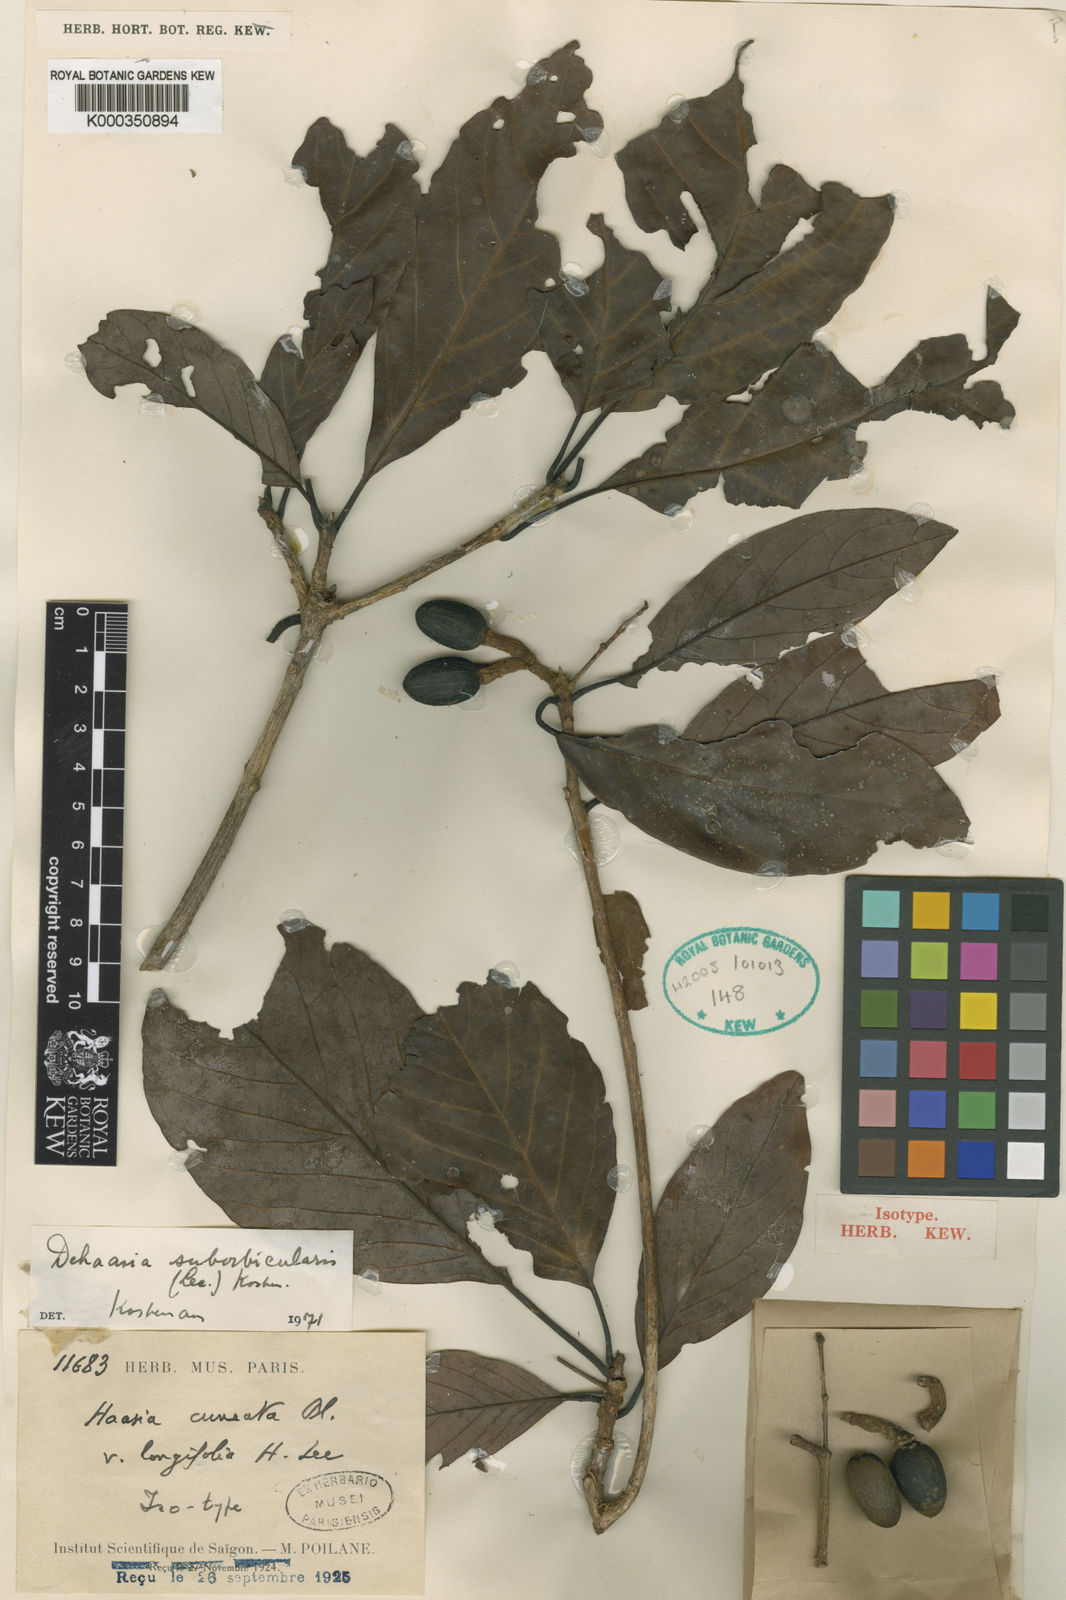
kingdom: Plantae
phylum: Tracheophyta
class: Magnoliopsida
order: Laurales
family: Lauraceae
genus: Dehaasia
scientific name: Dehaasia
